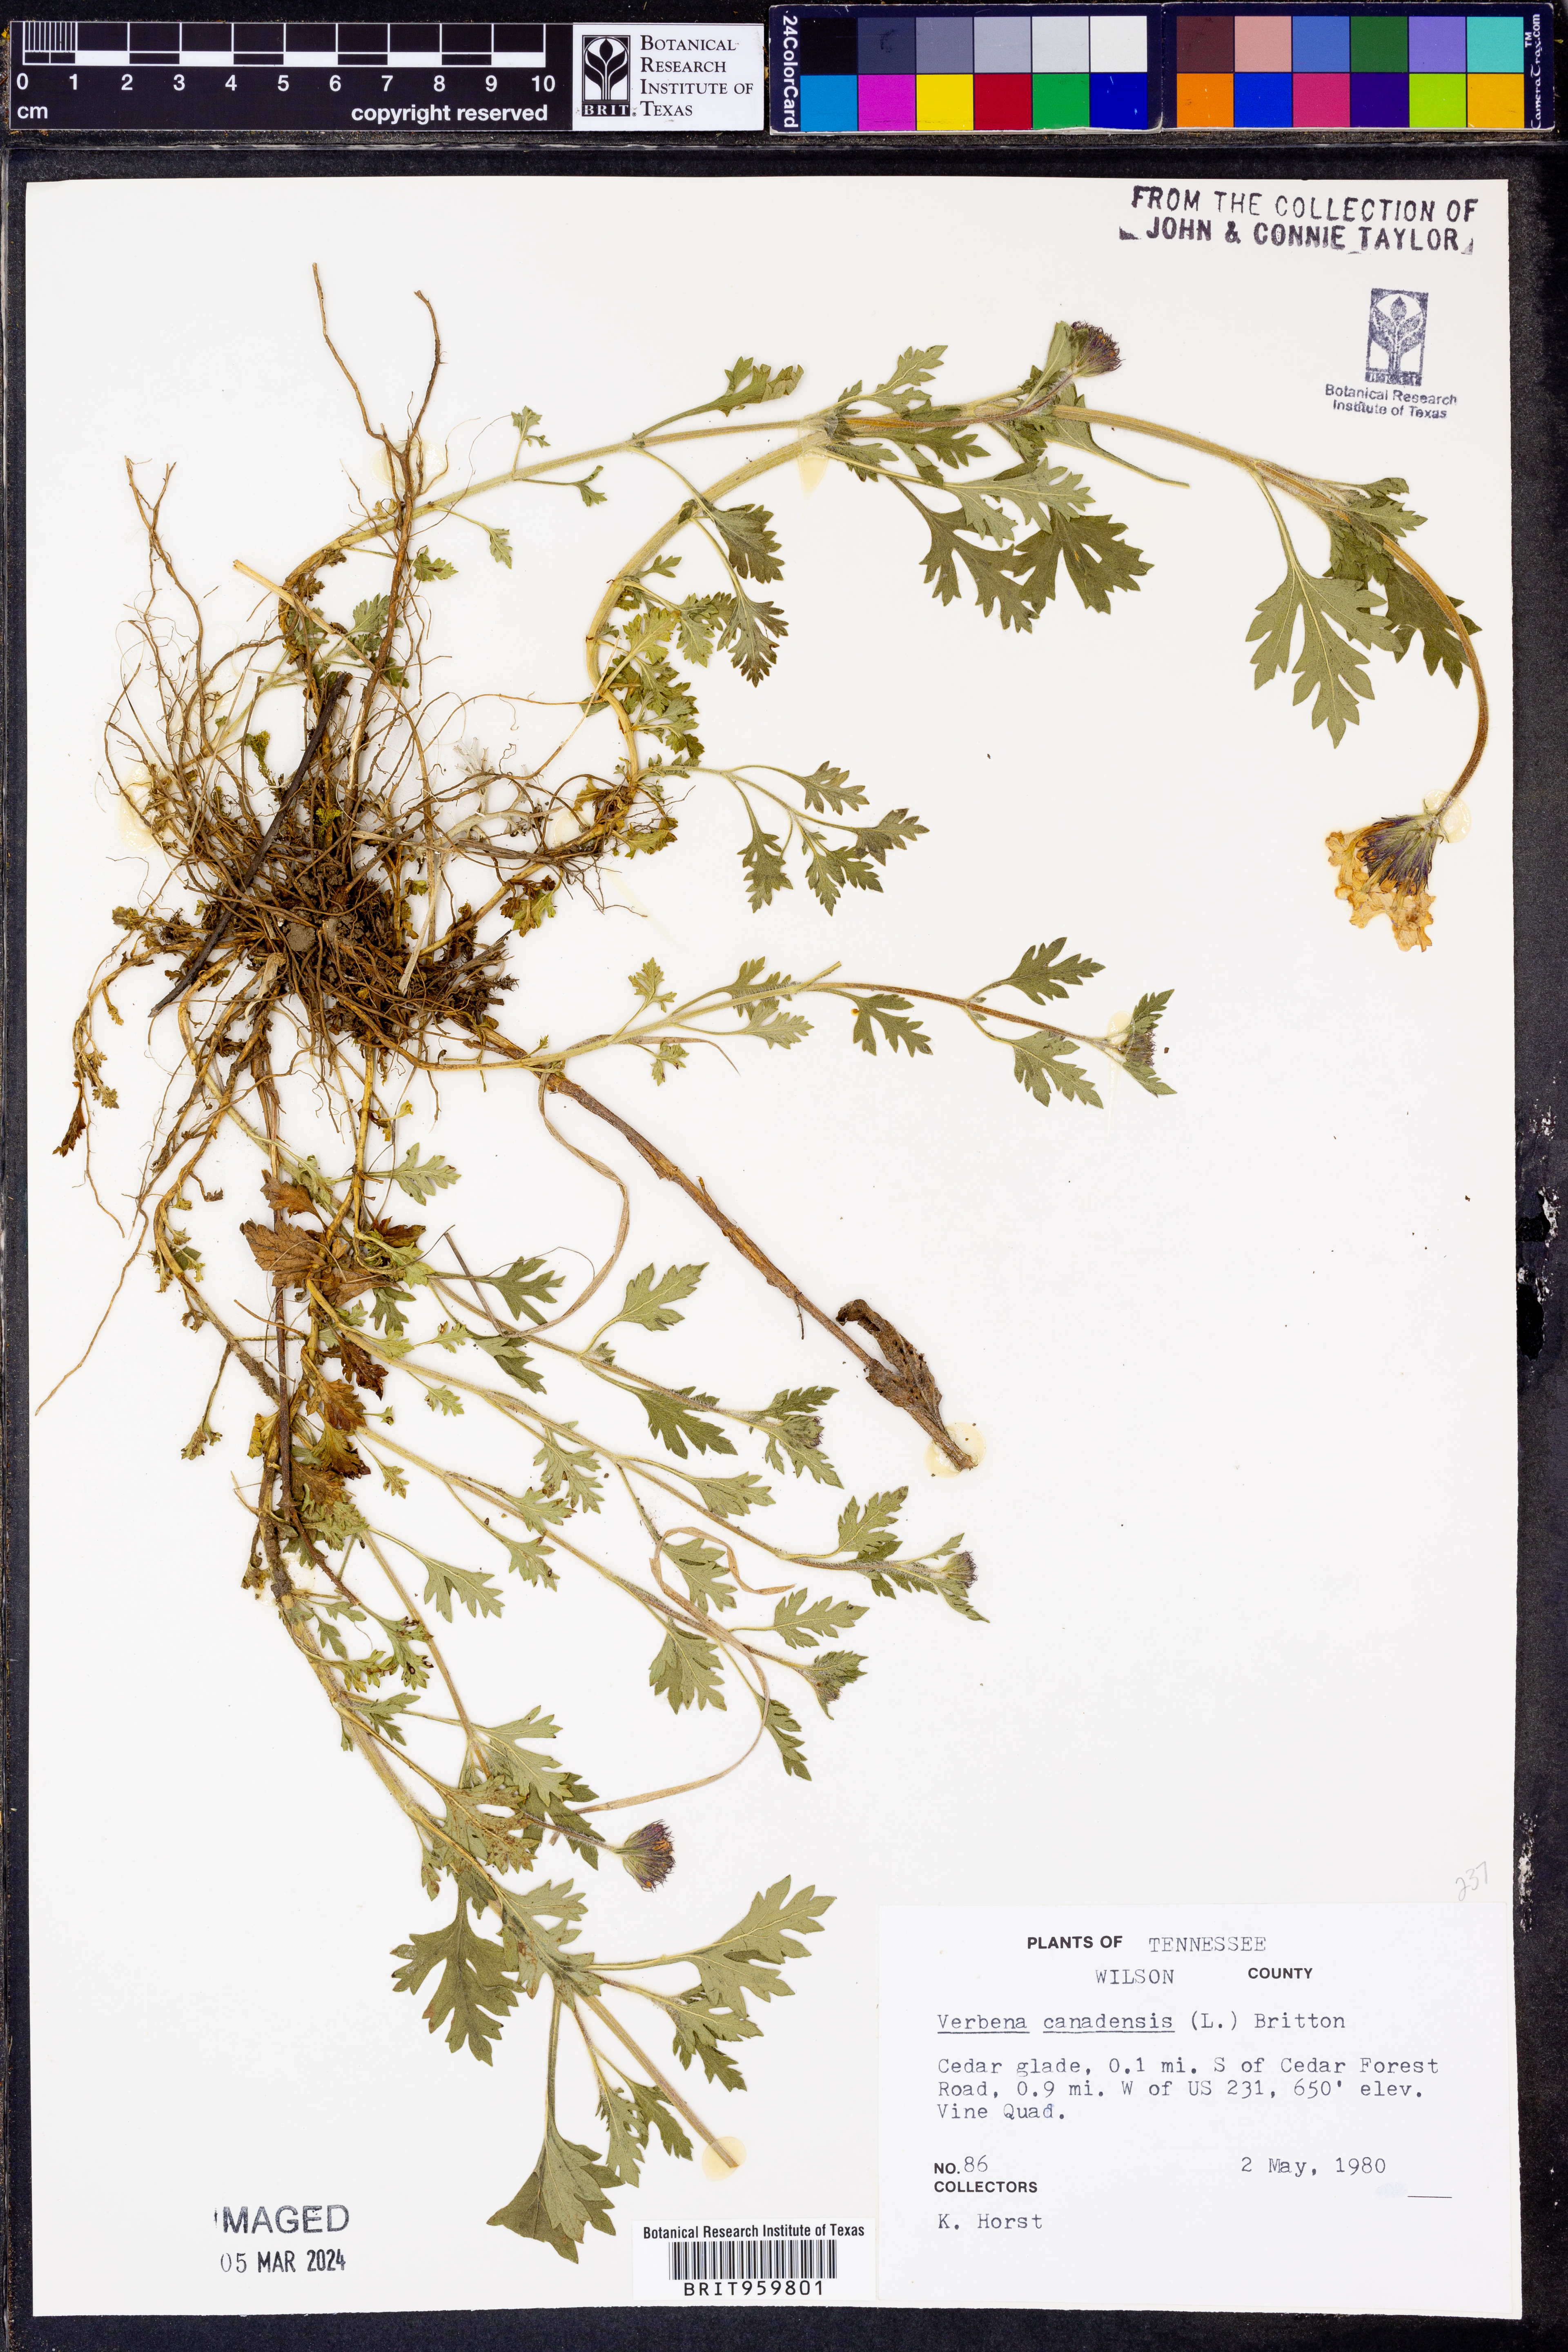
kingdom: Plantae
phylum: Tracheophyta
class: Magnoliopsida
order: Lamiales
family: Verbenaceae
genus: Verbena
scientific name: Verbena canadensis
